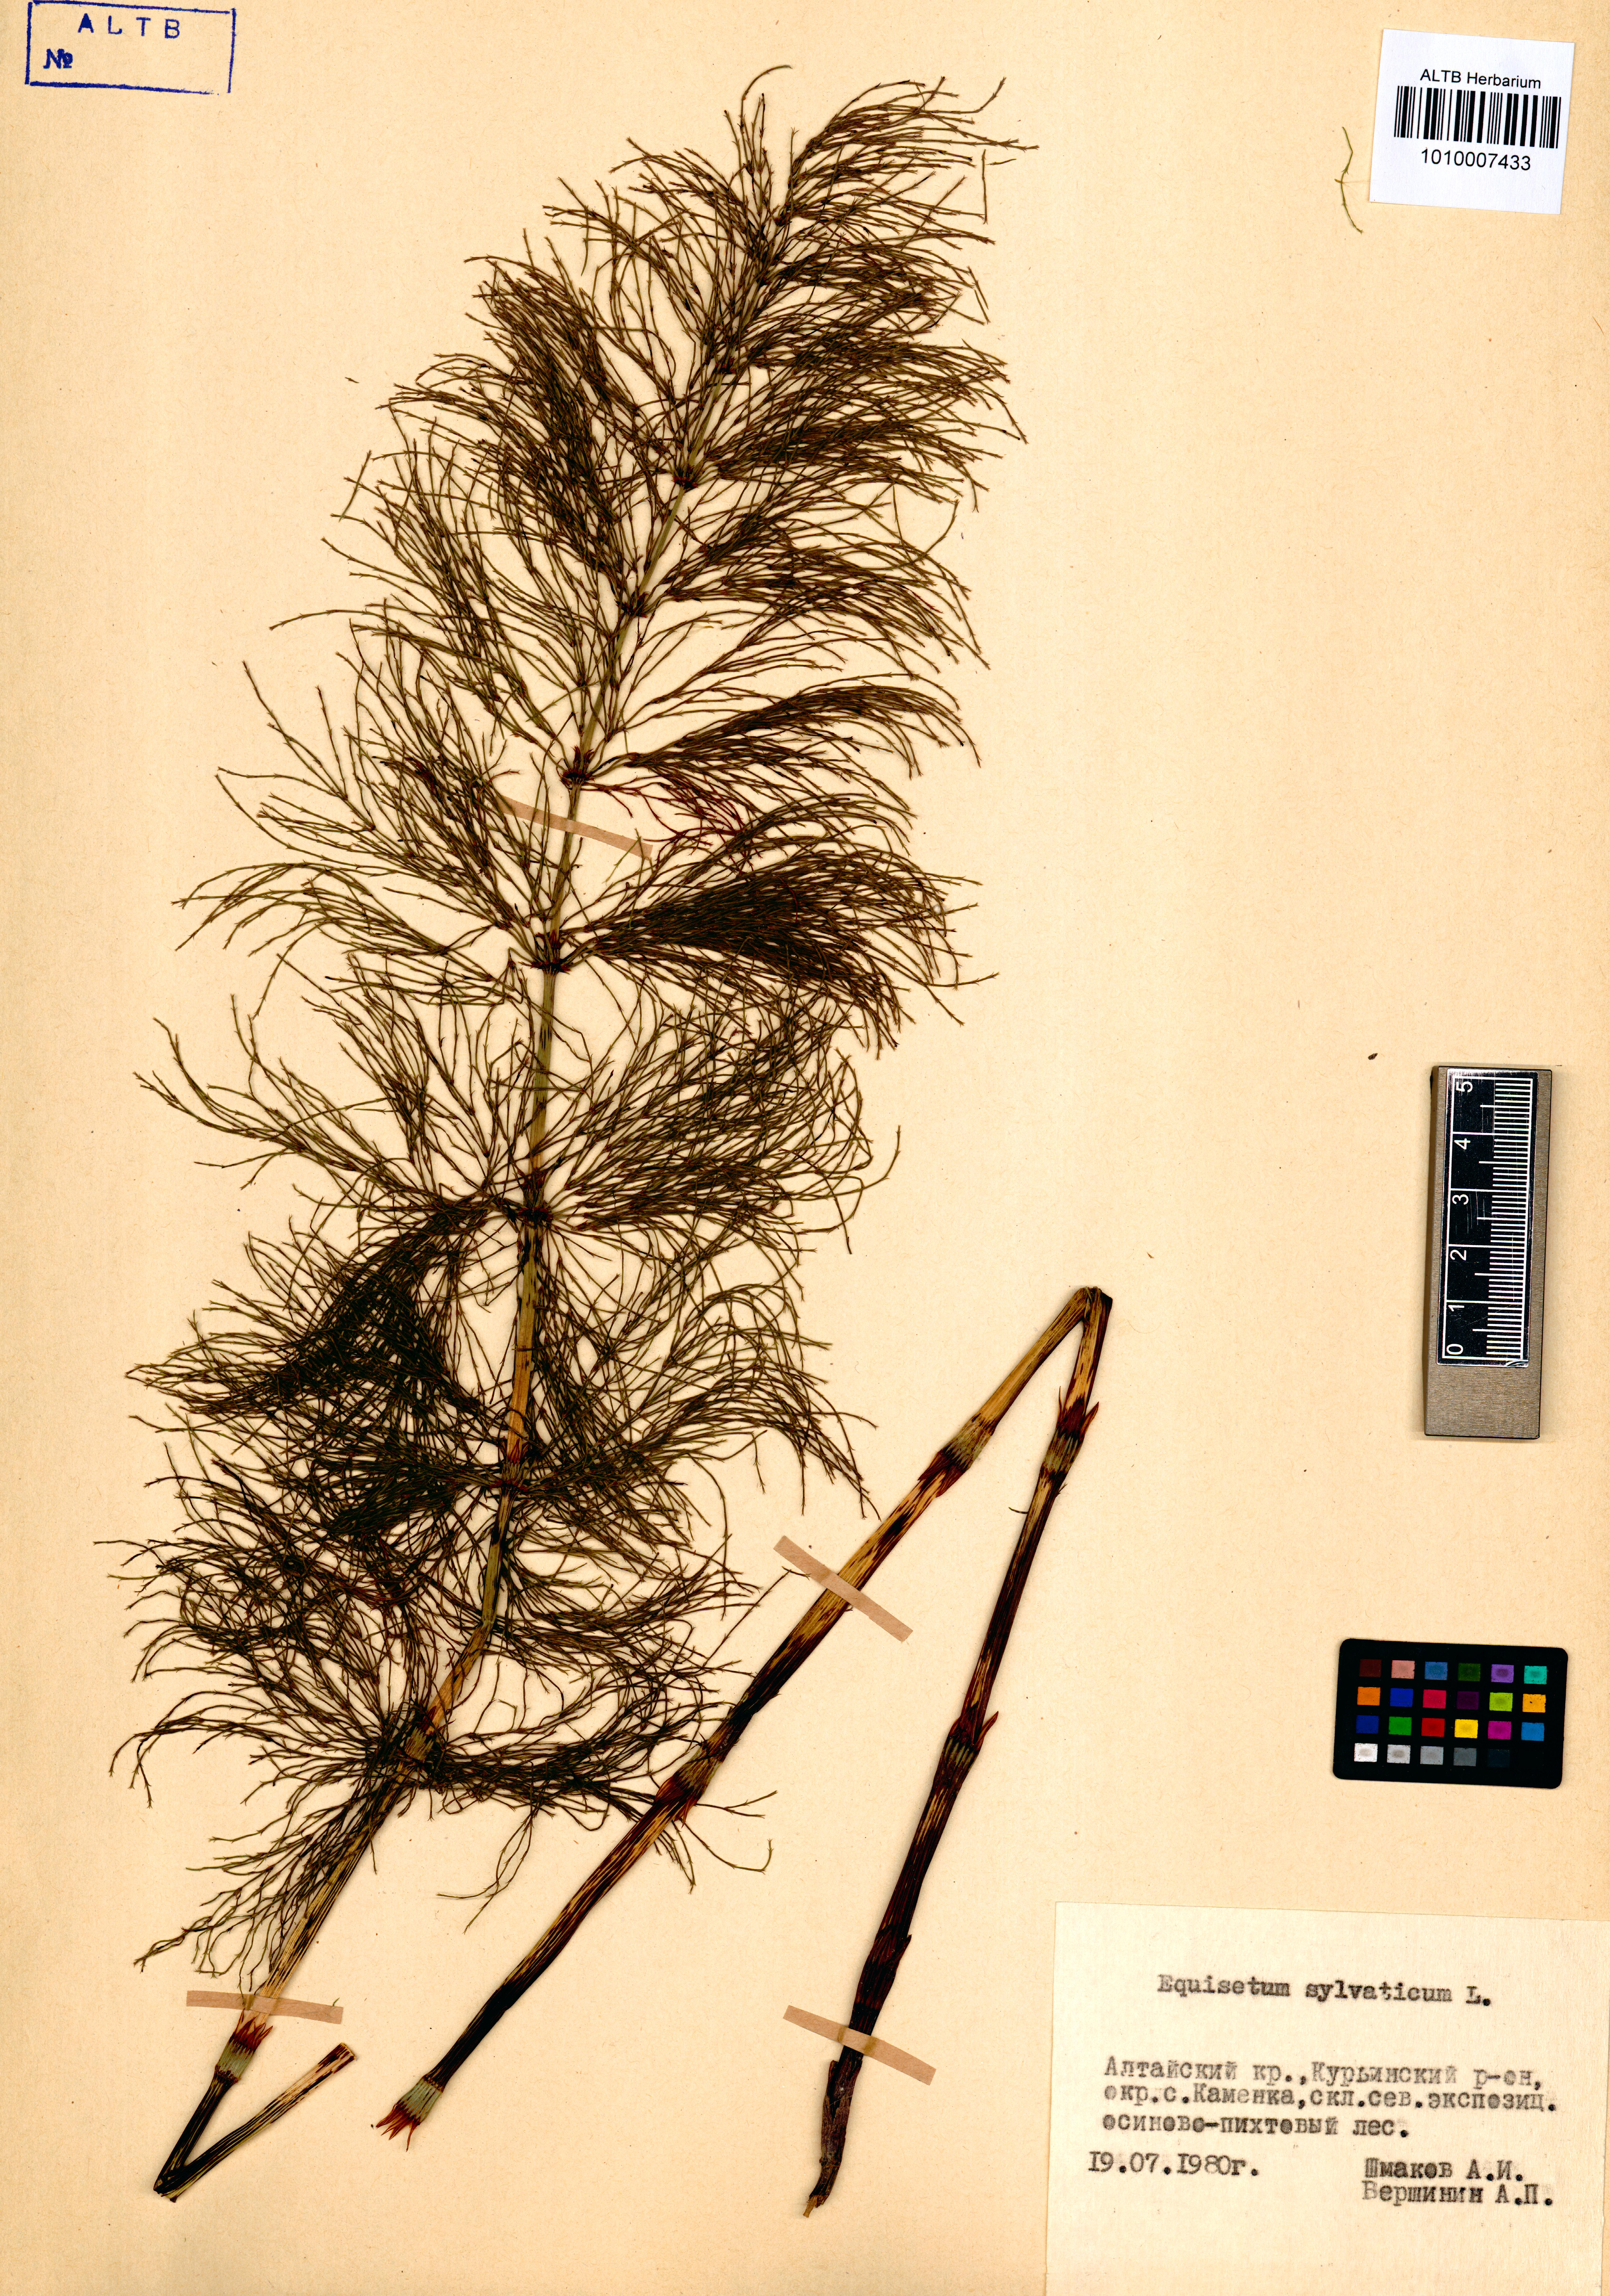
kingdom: Plantae
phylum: Tracheophyta
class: Polypodiopsida
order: Equisetales
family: Equisetaceae
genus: Equisetum
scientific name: Equisetum sylvaticum
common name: Wood horsetail
